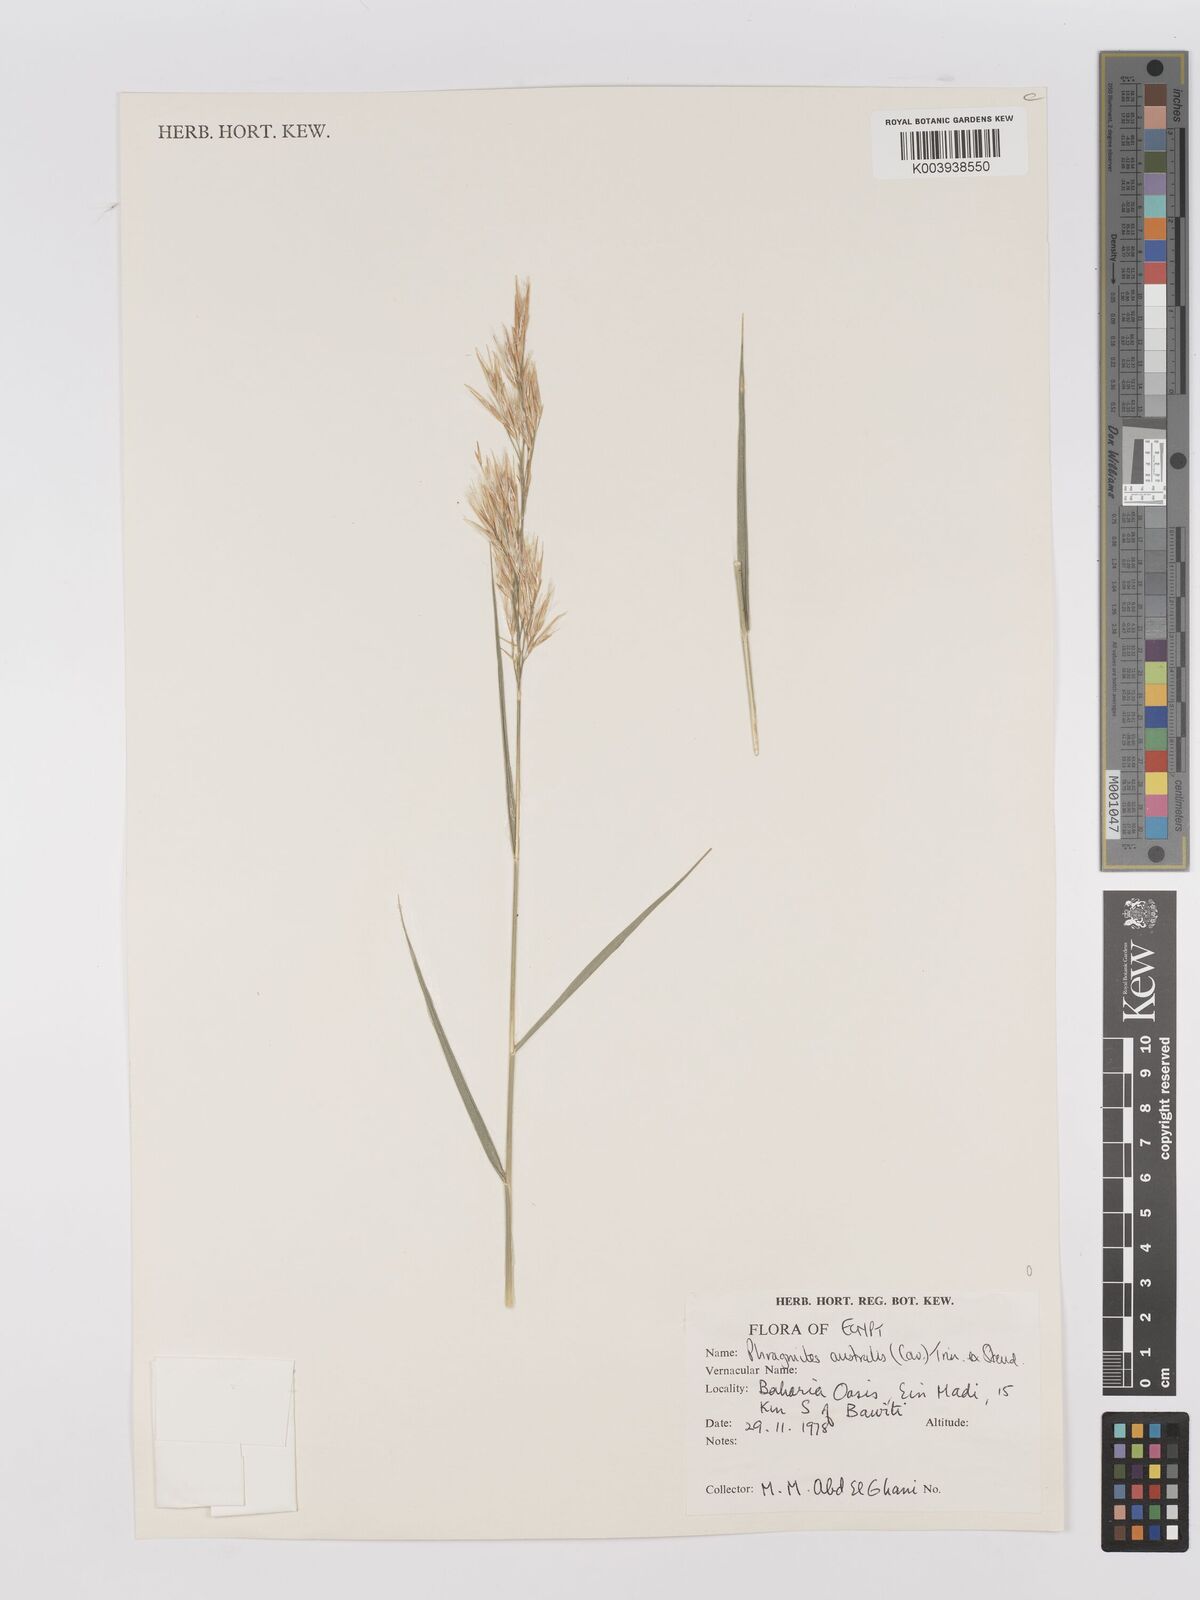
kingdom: Plantae
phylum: Tracheophyta
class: Liliopsida
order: Poales
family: Poaceae
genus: Phragmites
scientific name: Phragmites australis
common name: Common reed
